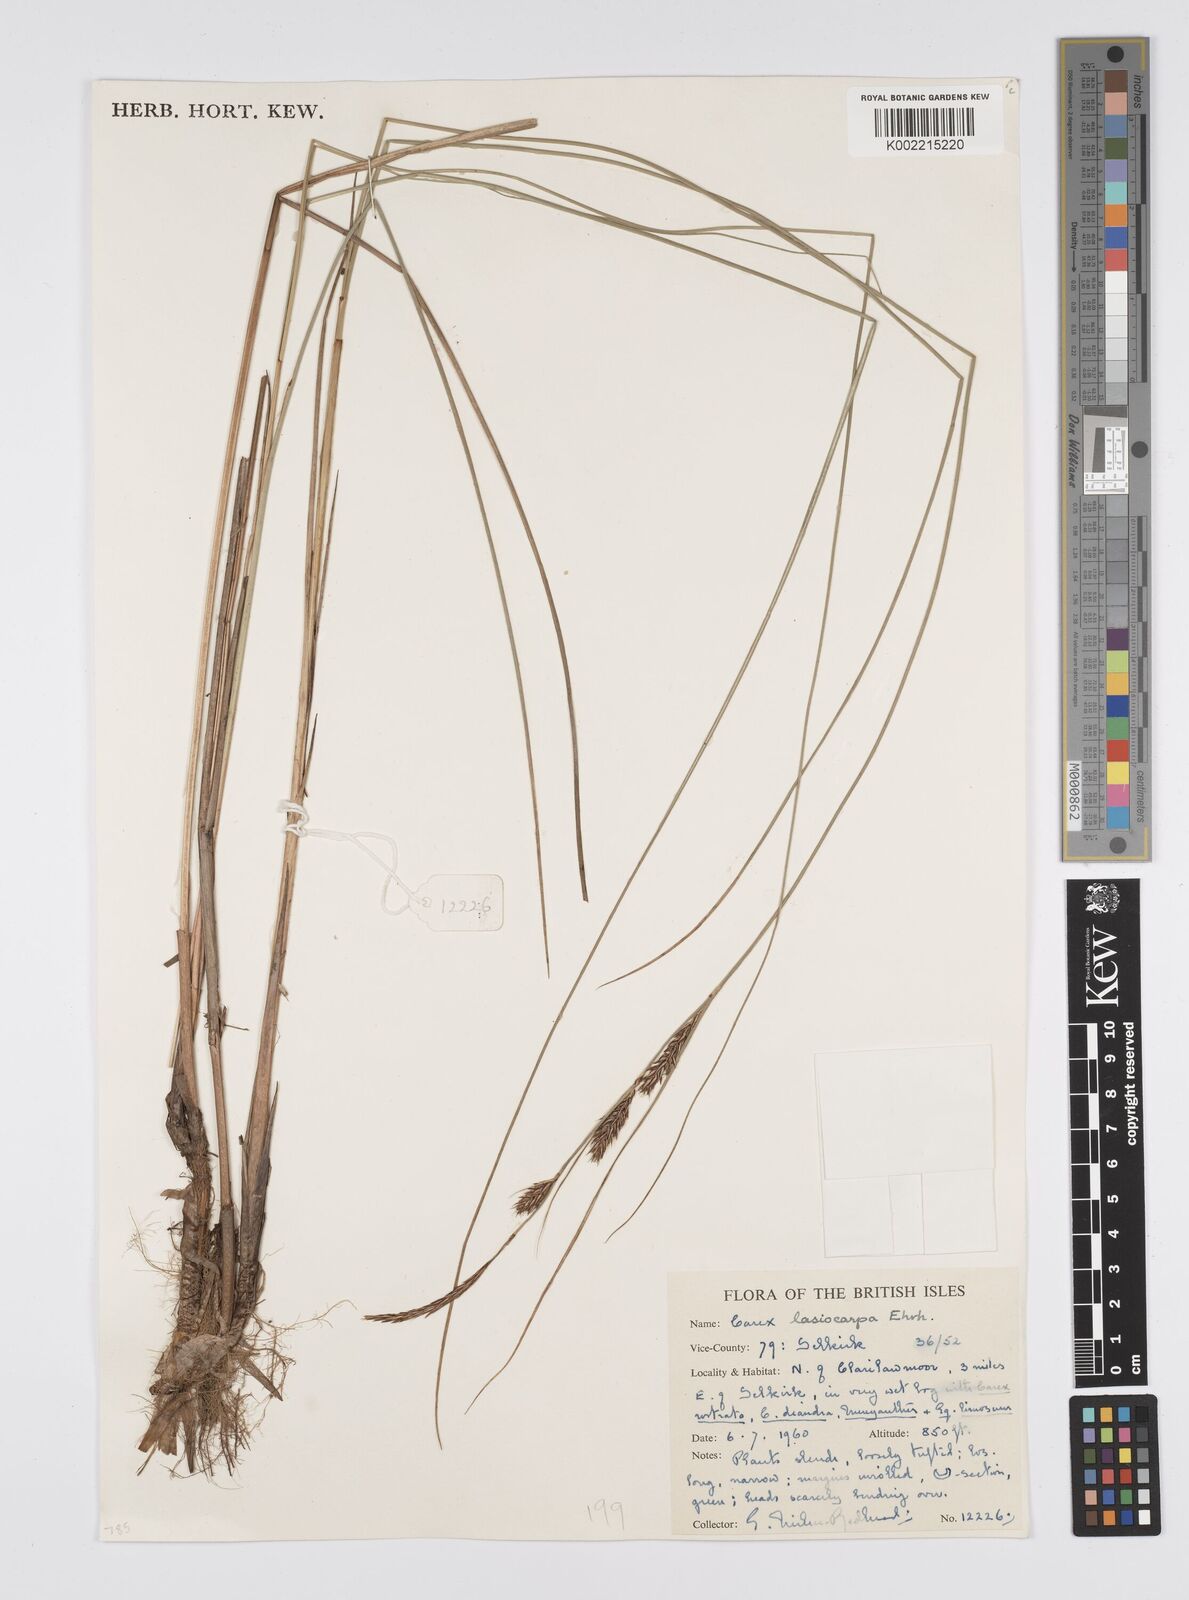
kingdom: Plantae
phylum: Tracheophyta
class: Liliopsida
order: Poales
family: Cyperaceae
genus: Carex
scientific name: Carex lasiocarpa
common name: Slender sedge
